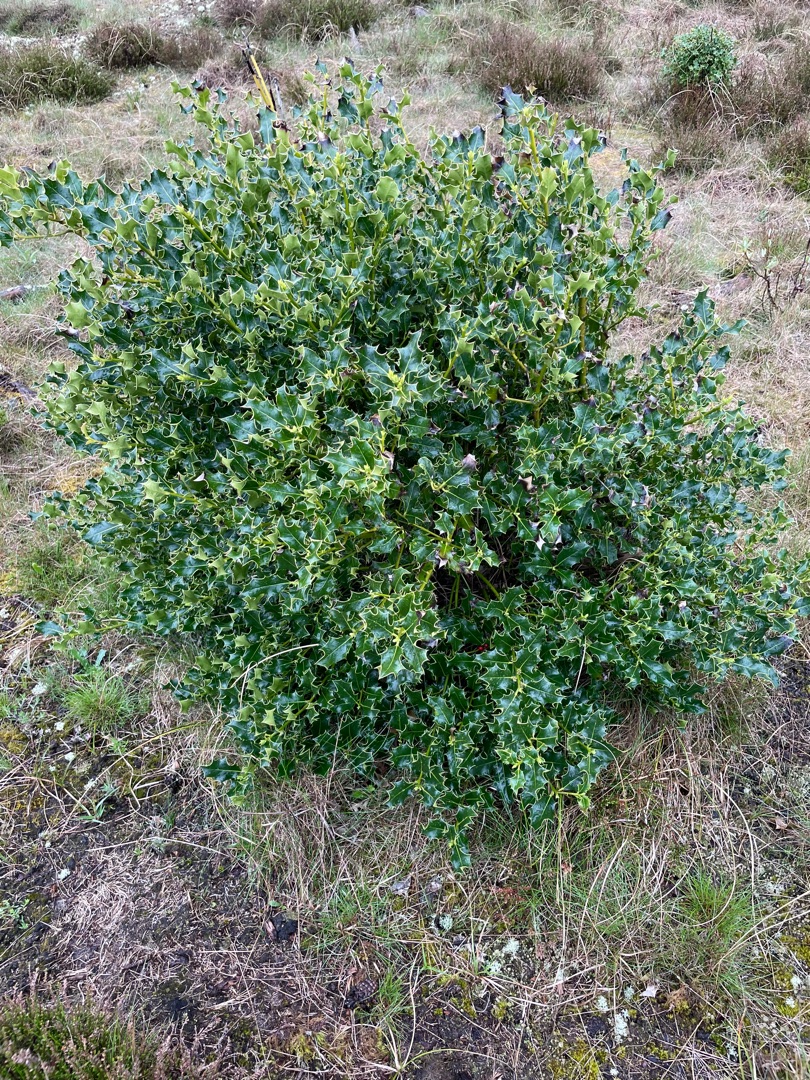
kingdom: Plantae
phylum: Tracheophyta
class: Magnoliopsida
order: Aquifoliales
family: Aquifoliaceae
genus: Ilex
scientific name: Ilex aquifolium
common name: Kristtorn
